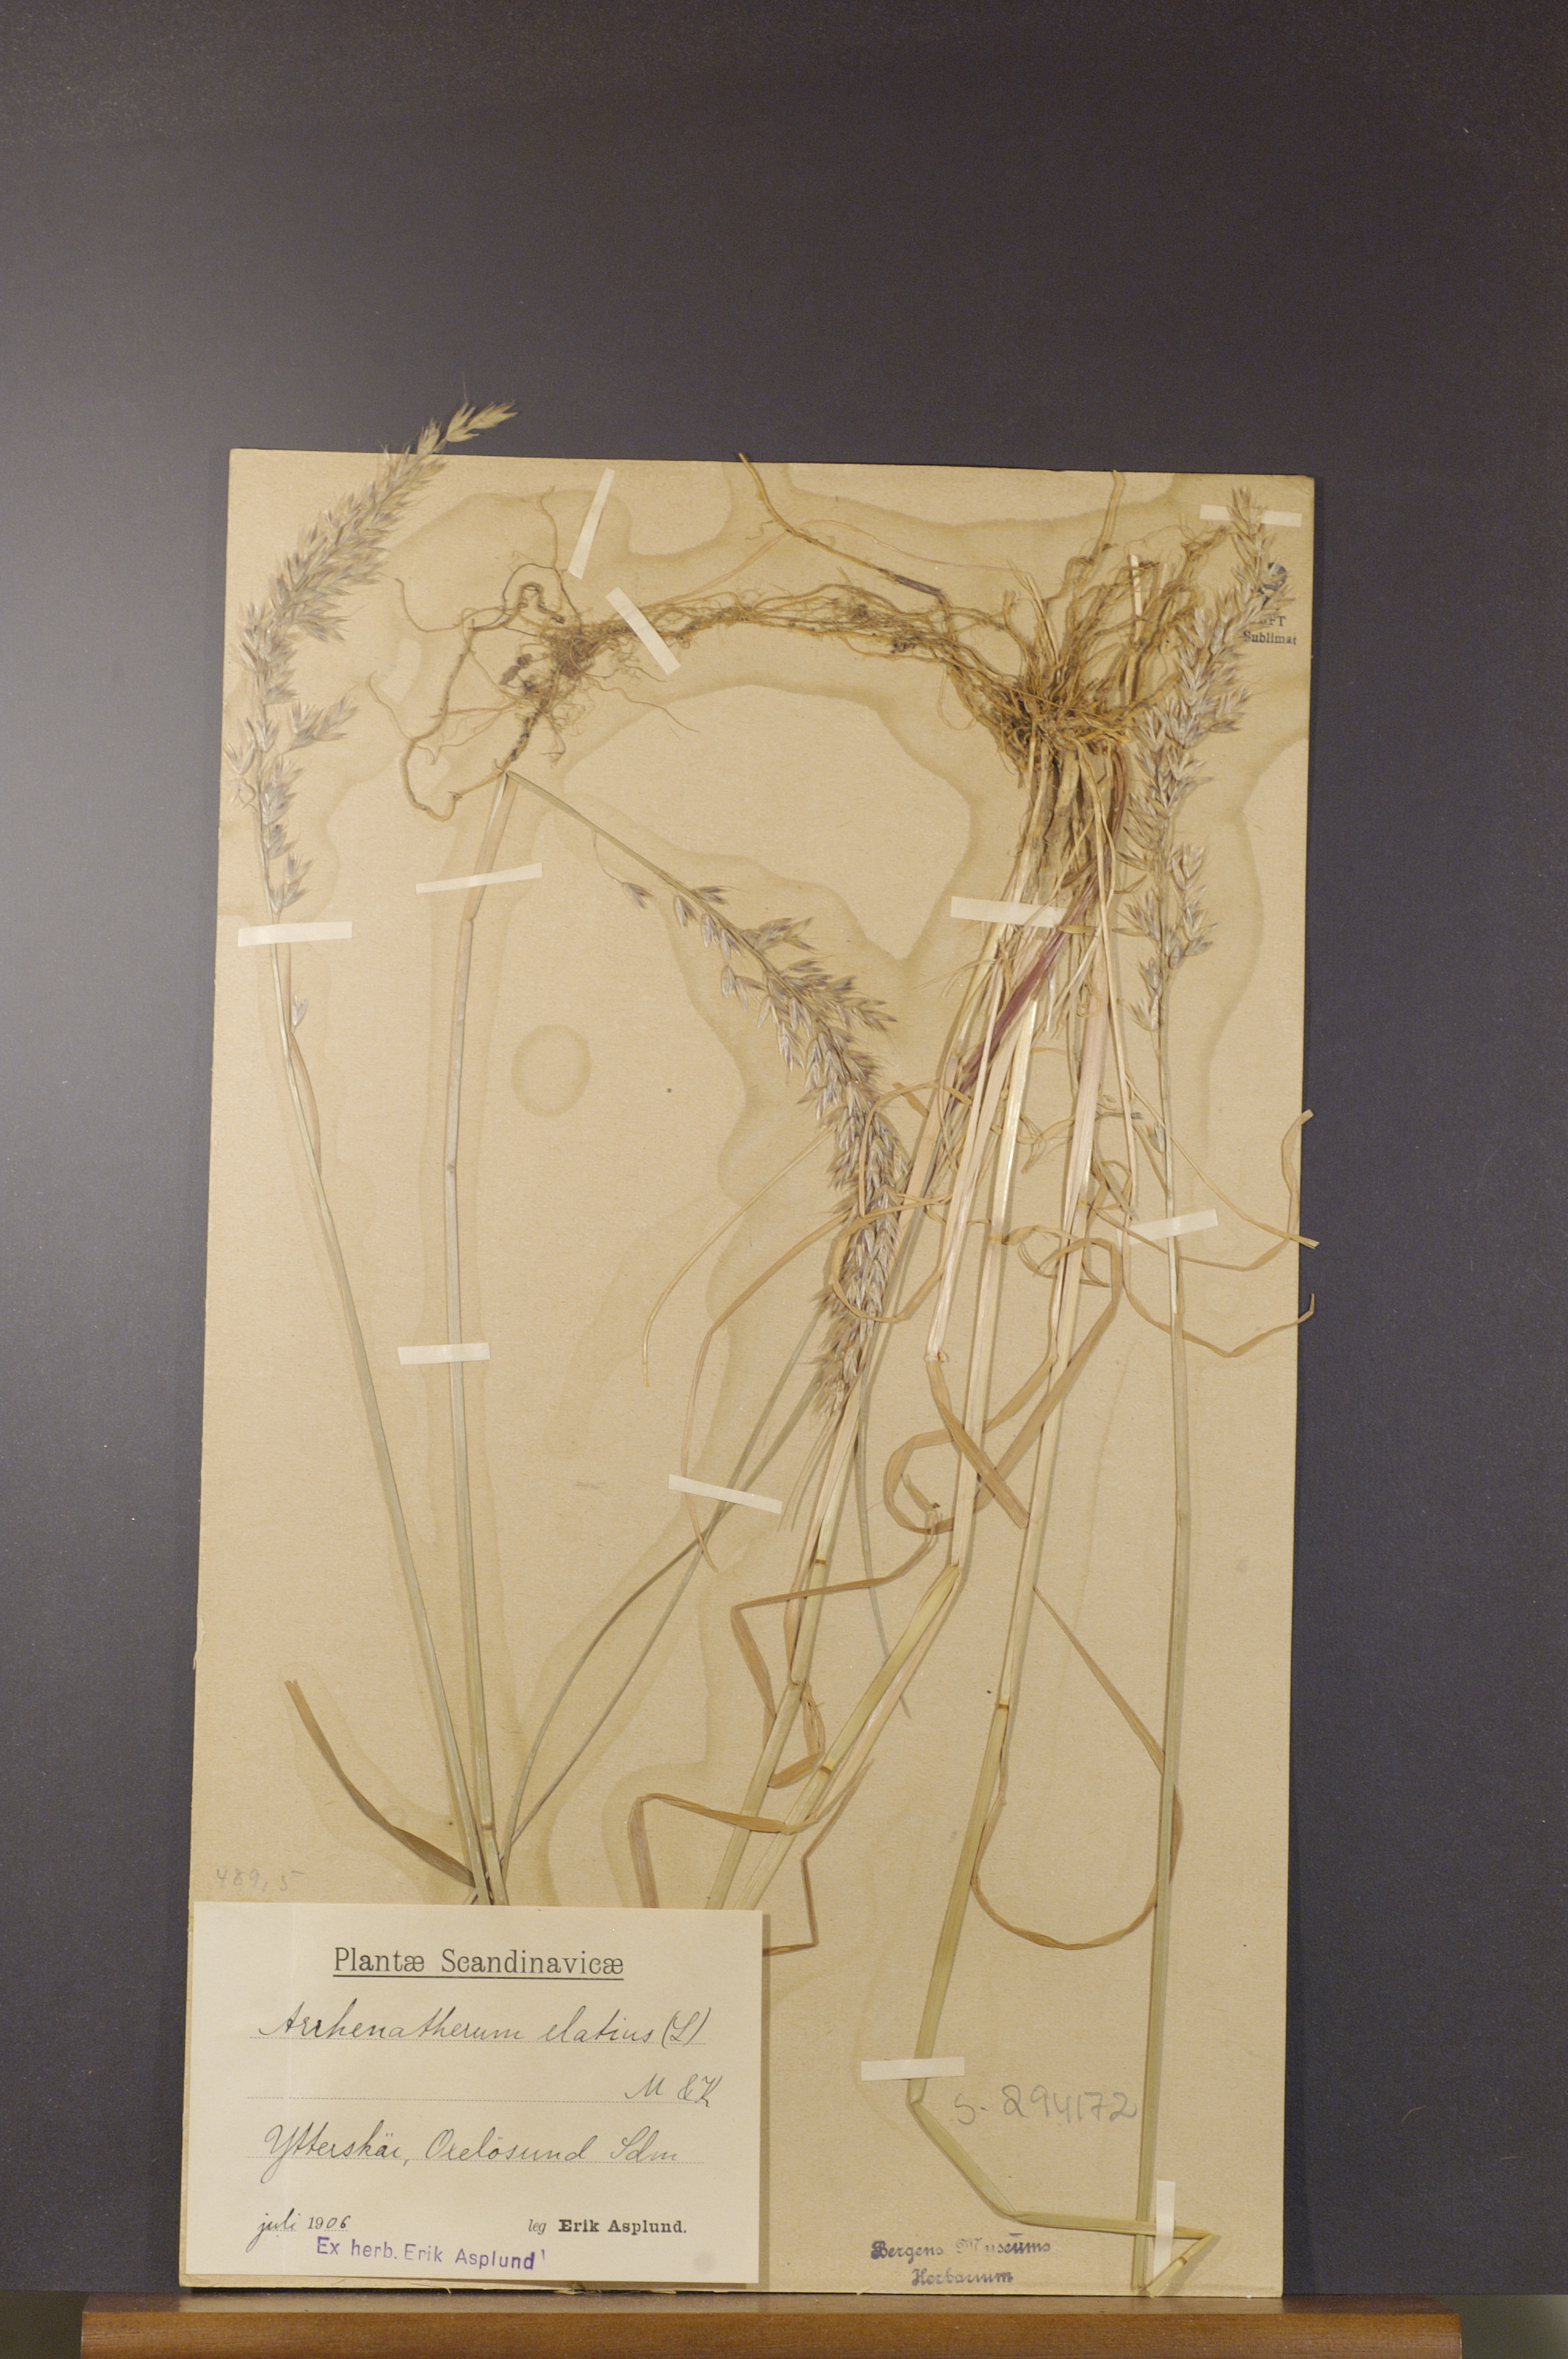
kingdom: Plantae
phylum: Tracheophyta
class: Liliopsida
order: Poales
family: Poaceae
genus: Arrhenatherum
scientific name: Arrhenatherum elatius
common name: Tall oatgrass
